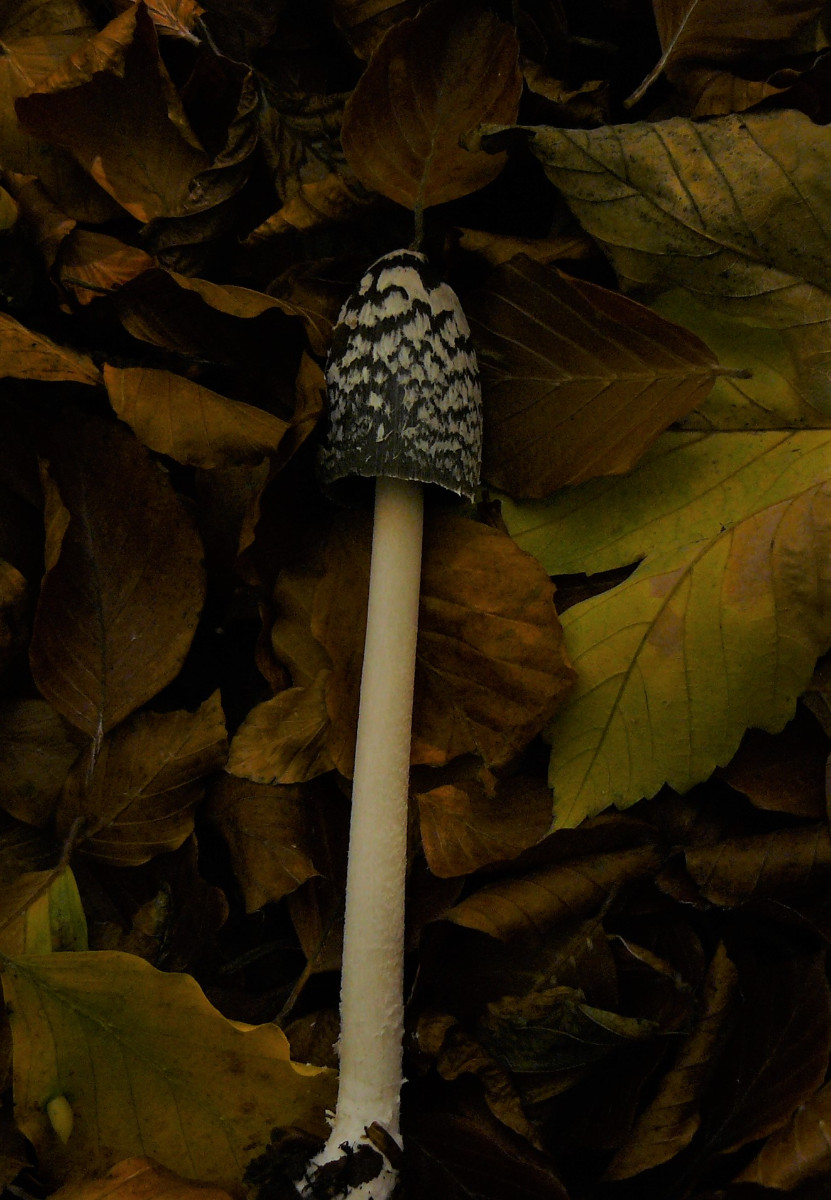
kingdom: Fungi
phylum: Basidiomycota
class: Agaricomycetes
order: Agaricales
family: Psathyrellaceae
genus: Coprinopsis
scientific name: Coprinopsis picacea
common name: skade-blækhat
